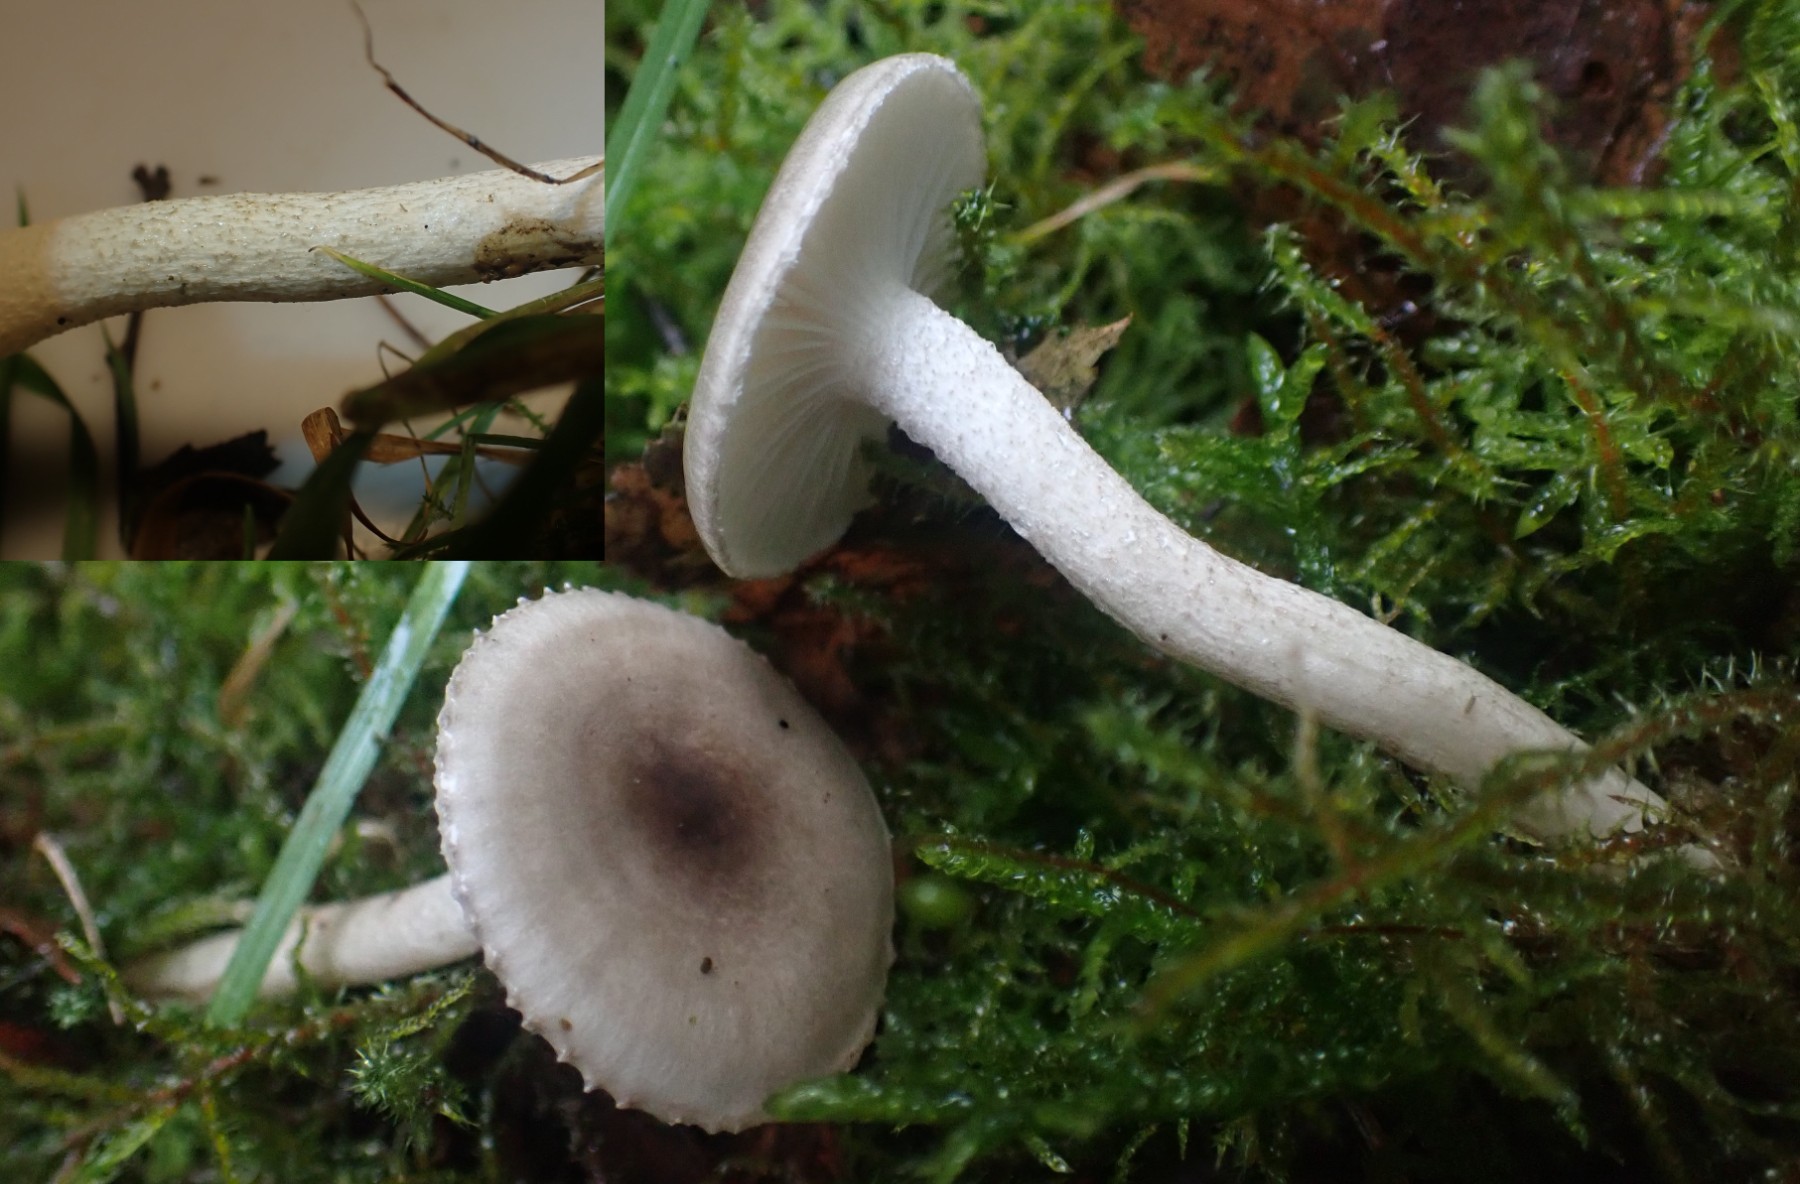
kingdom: Fungi
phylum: Basidiomycota
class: Agaricomycetes
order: Agaricales
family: Hygrophoraceae
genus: Hygrophorus
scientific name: Hygrophorus pustulatus
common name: mørkprikket sneglehat
